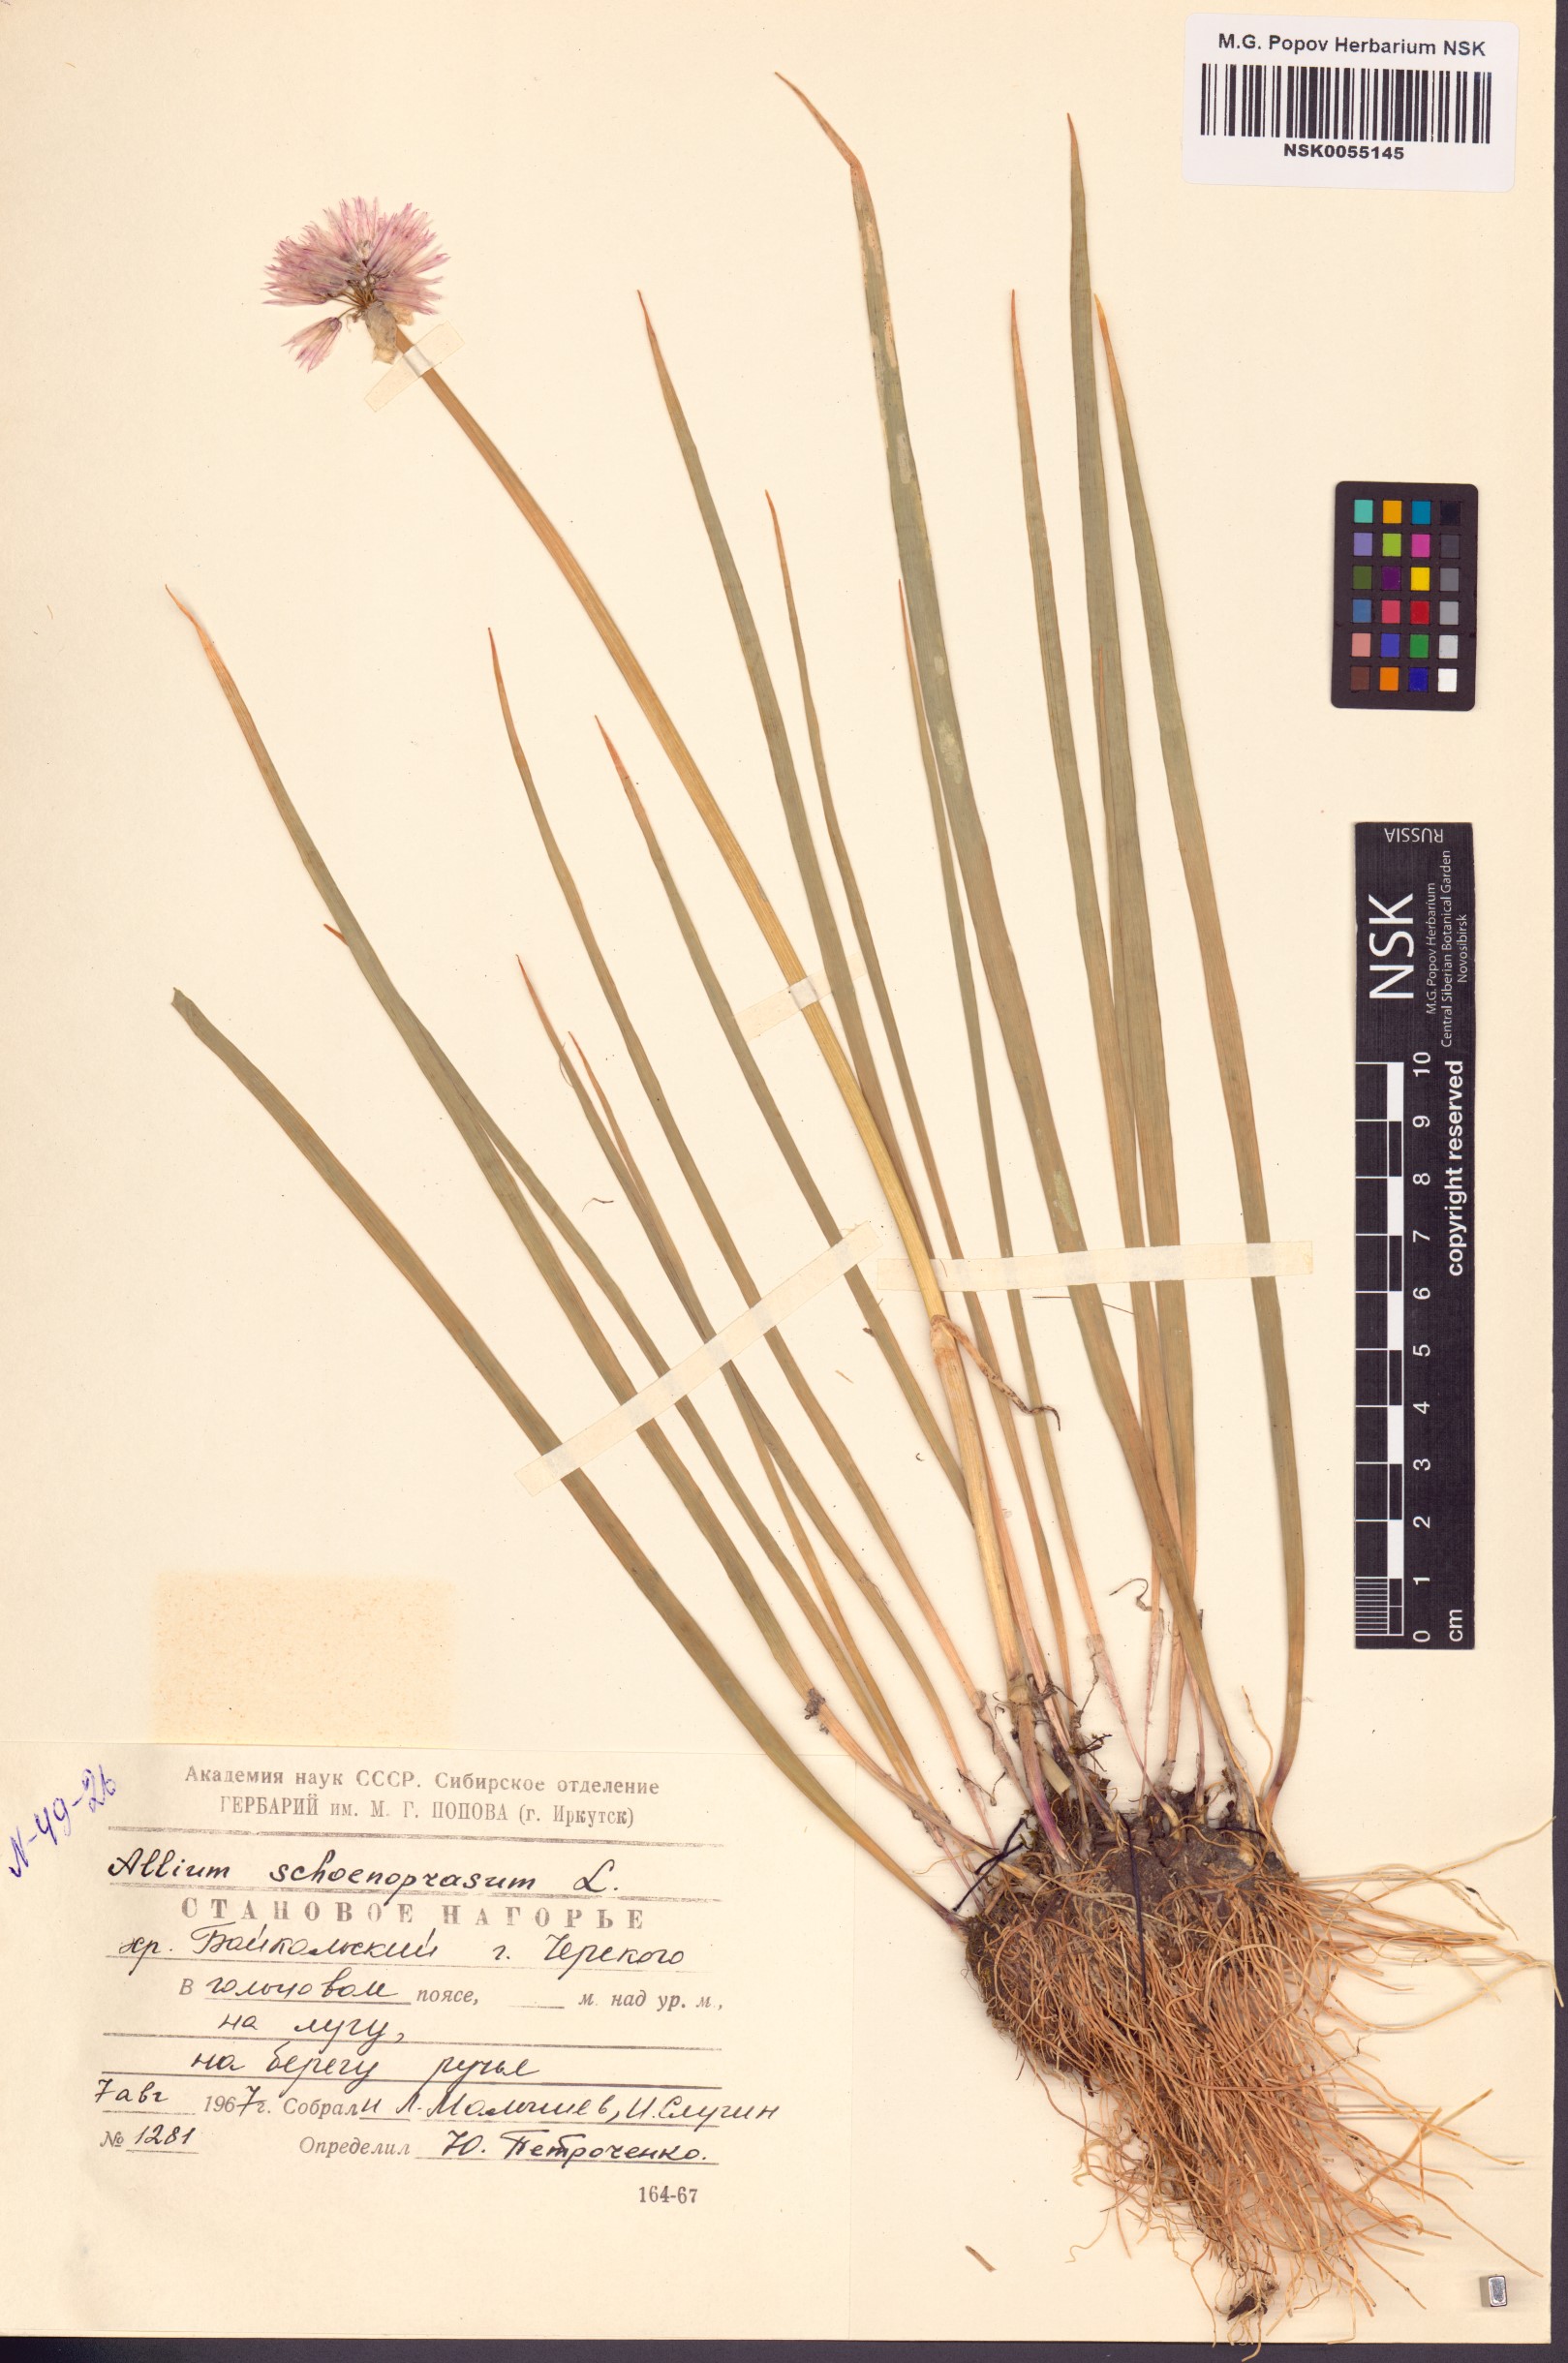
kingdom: Plantae
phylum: Tracheophyta
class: Liliopsida
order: Asparagales
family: Amaryllidaceae
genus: Allium
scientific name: Allium schoenoprasum
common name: Chives
